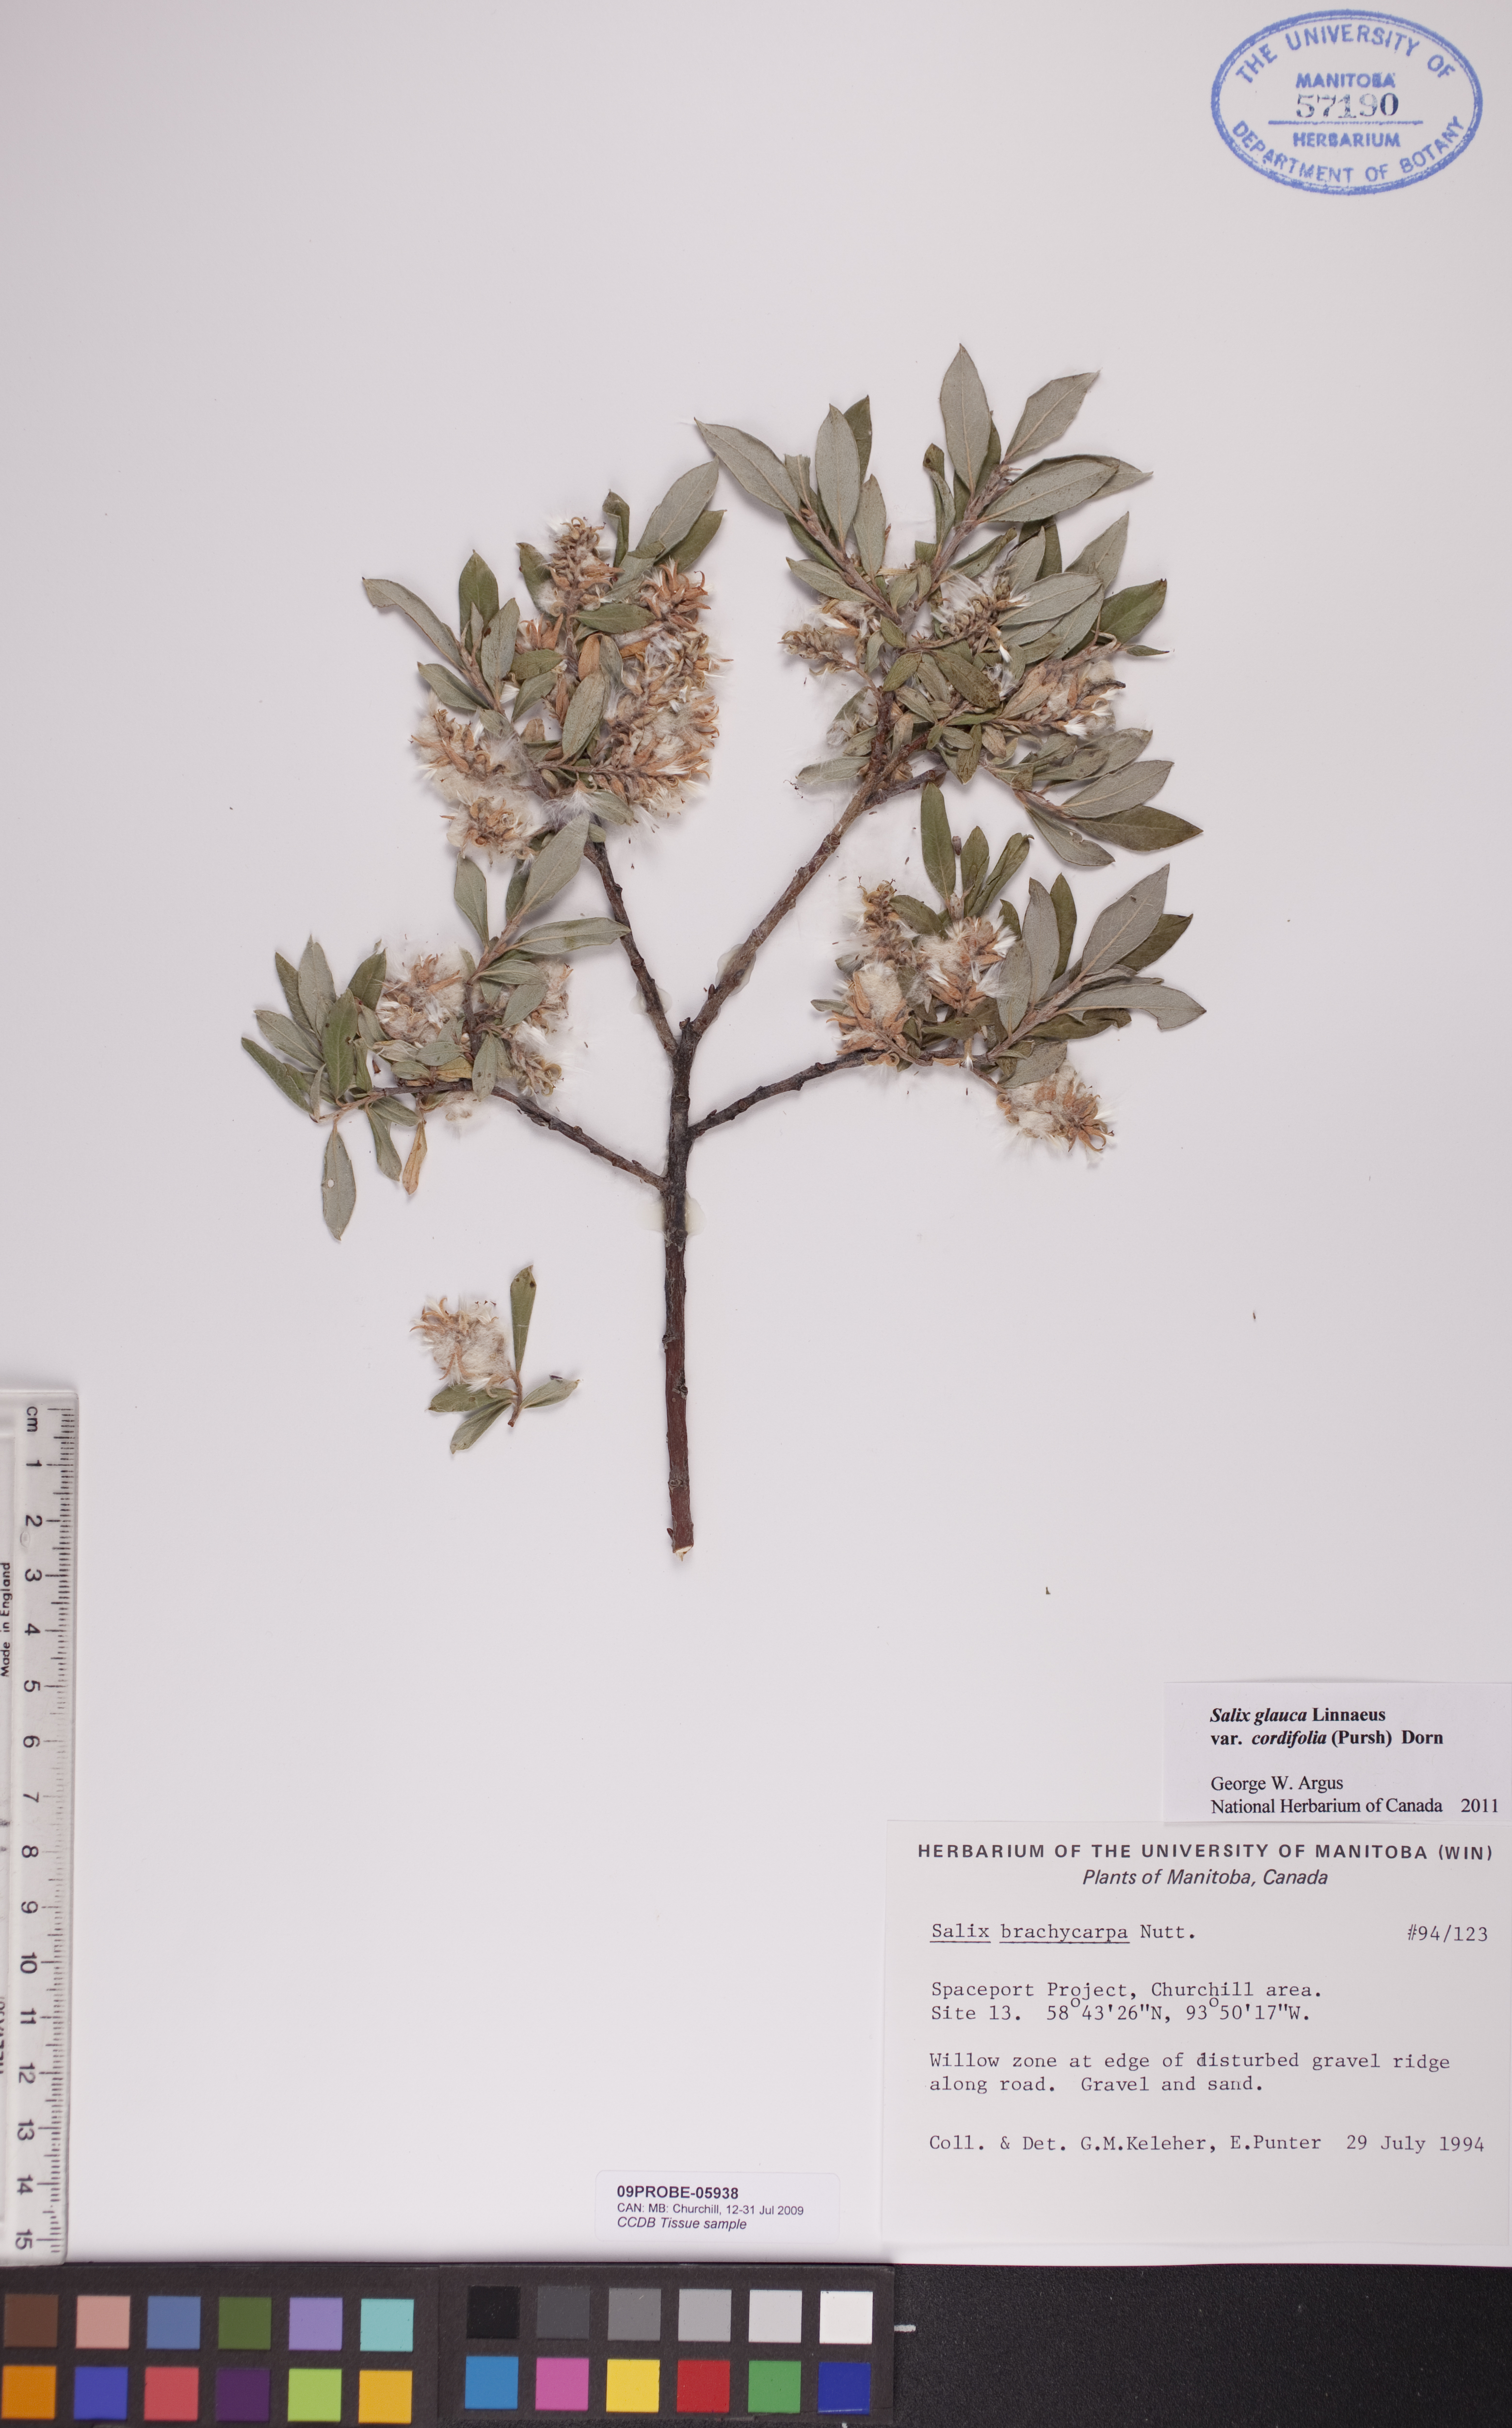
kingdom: Plantae
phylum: Tracheophyta
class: Magnoliopsida
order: Malpighiales
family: Salicaceae
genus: Salix
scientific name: Salix glauca
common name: Glaucous willow
